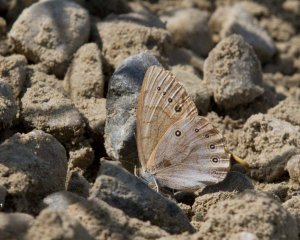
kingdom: Animalia
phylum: Arthropoda
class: Insecta
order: Lepidoptera
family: Nymphalidae
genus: Lethe
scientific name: Lethe
